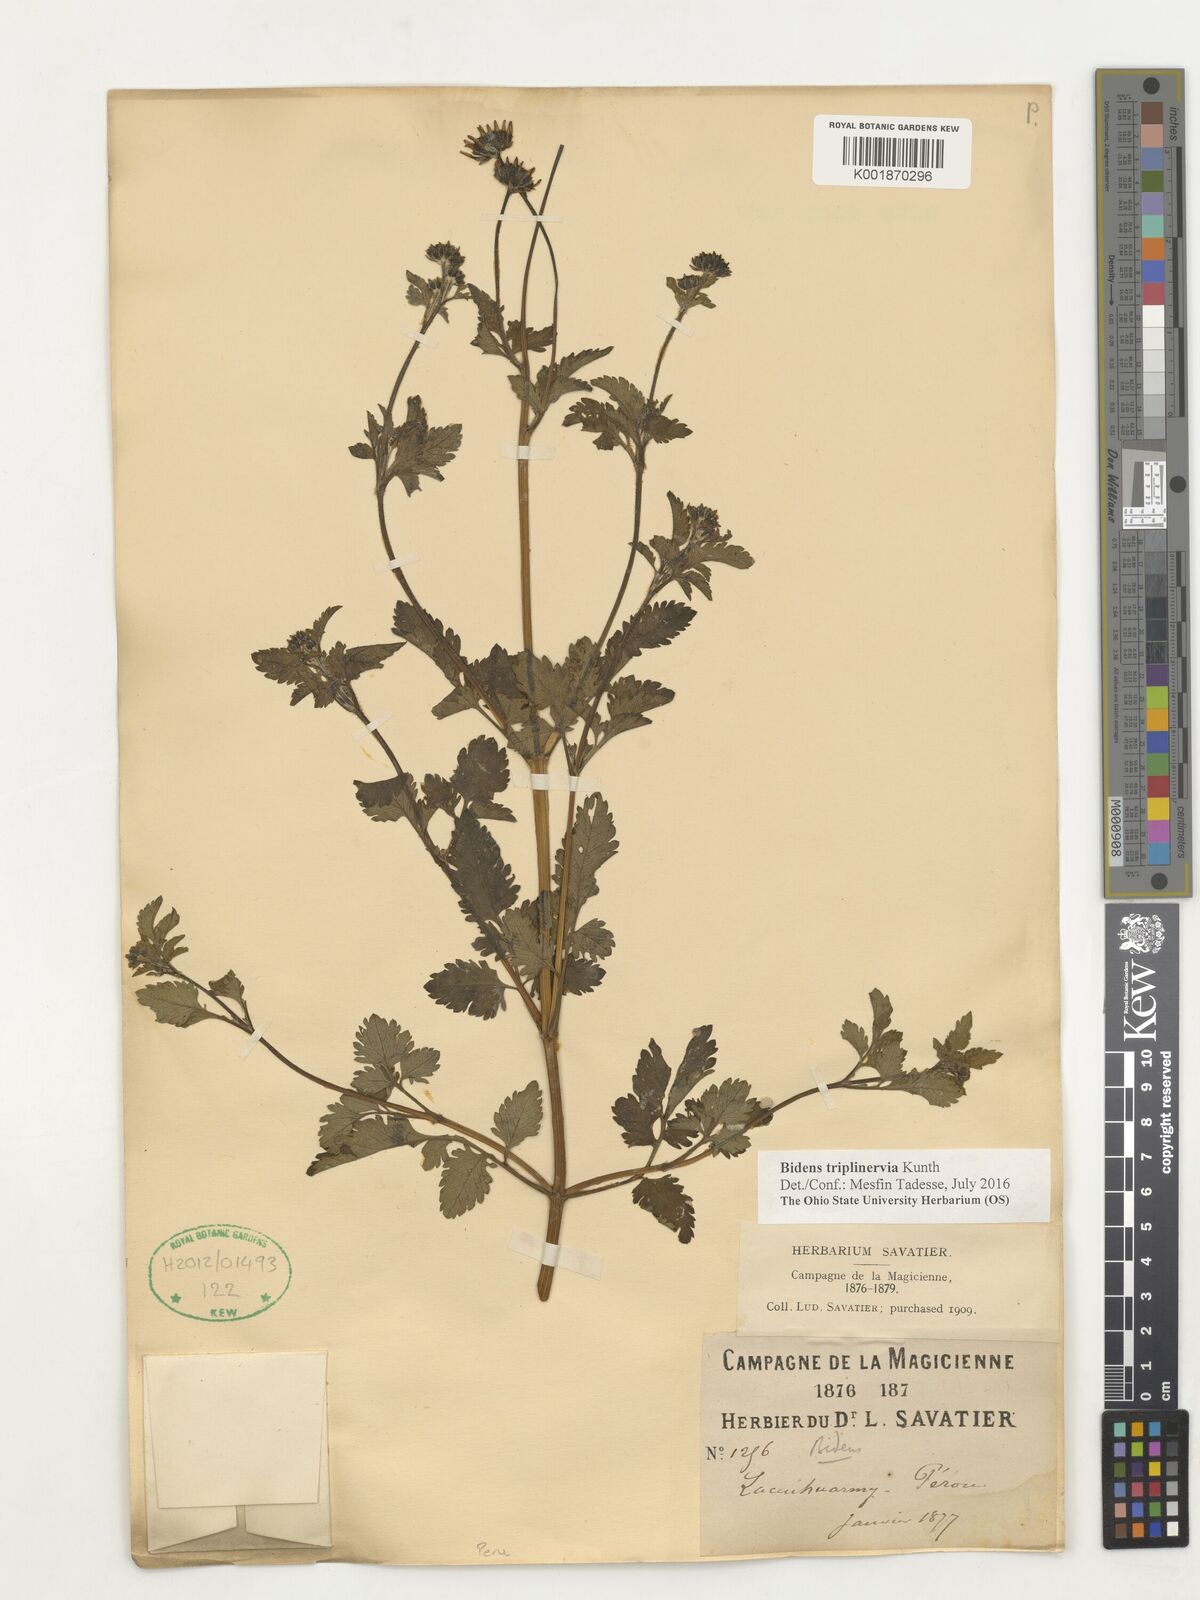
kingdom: Plantae
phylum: Tracheophyta
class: Magnoliopsida
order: Asterales
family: Asteraceae
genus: Bidens
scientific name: Bidens triplinervia
